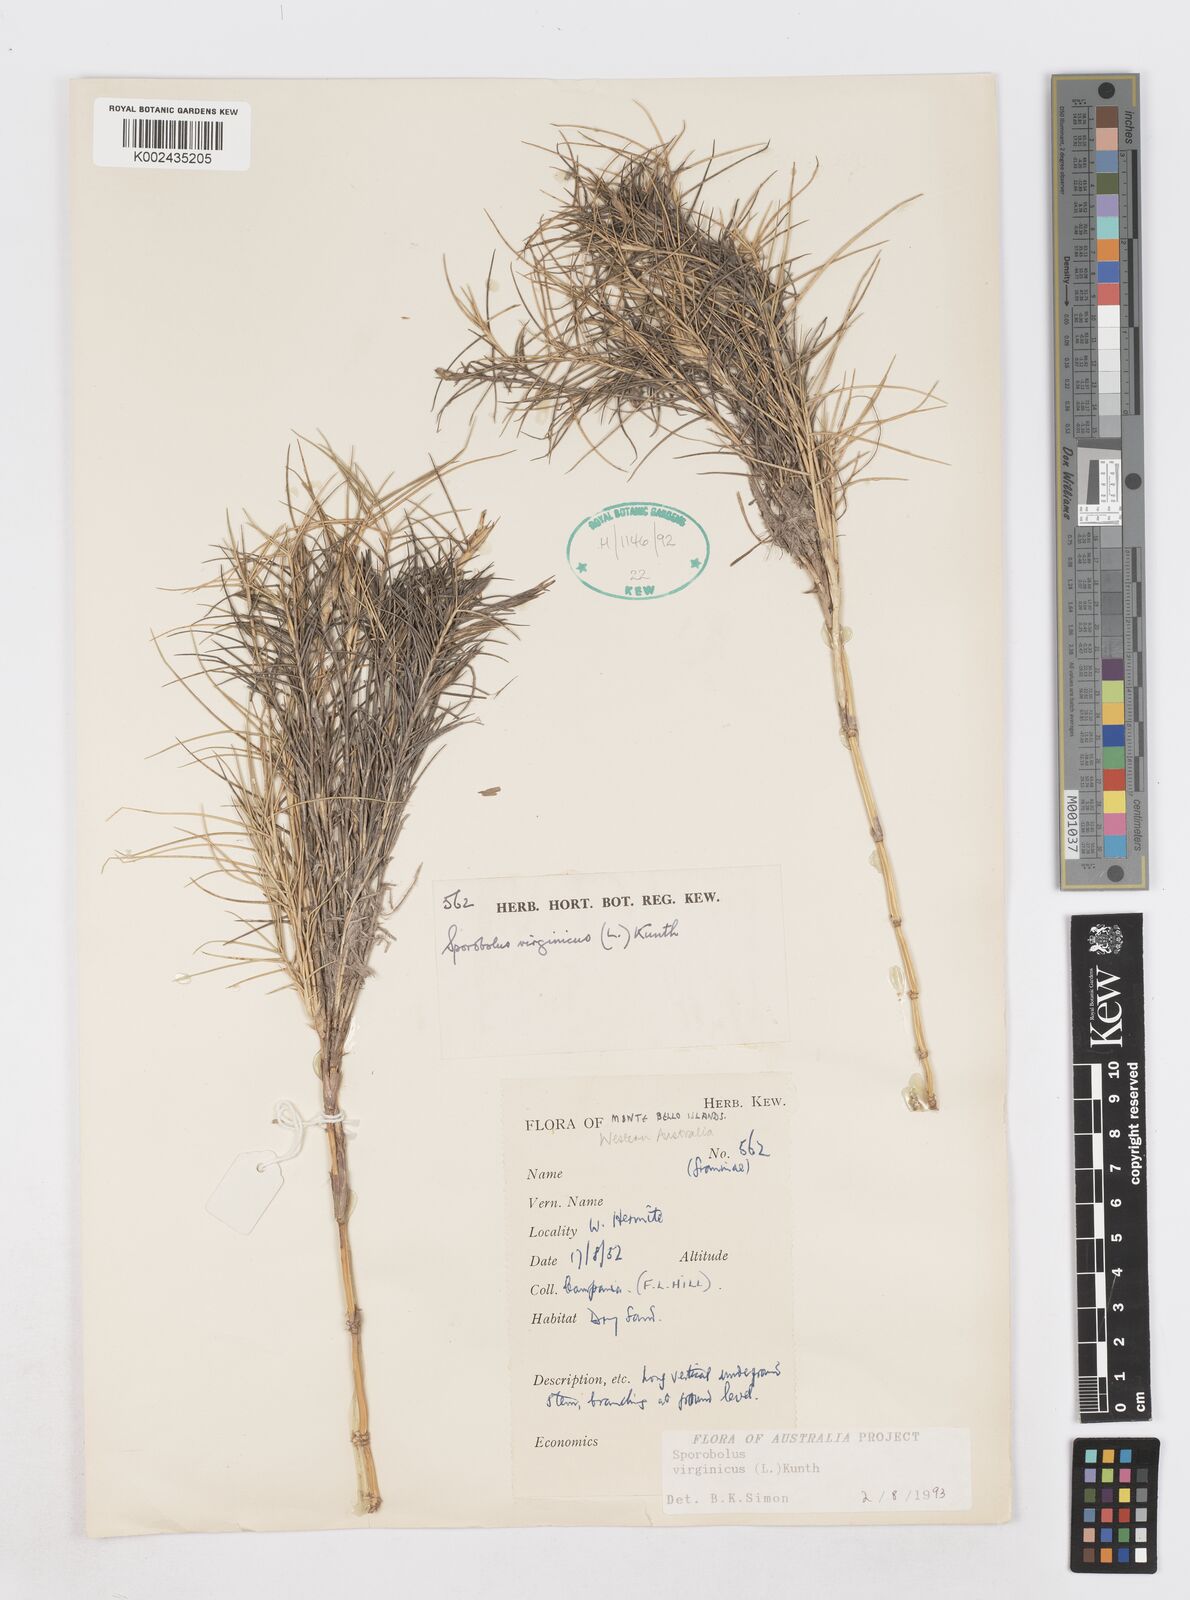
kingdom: Plantae
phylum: Tracheophyta
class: Liliopsida
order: Poales
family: Poaceae
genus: Sporobolus
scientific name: Sporobolus virginicus
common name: Beach dropseed
